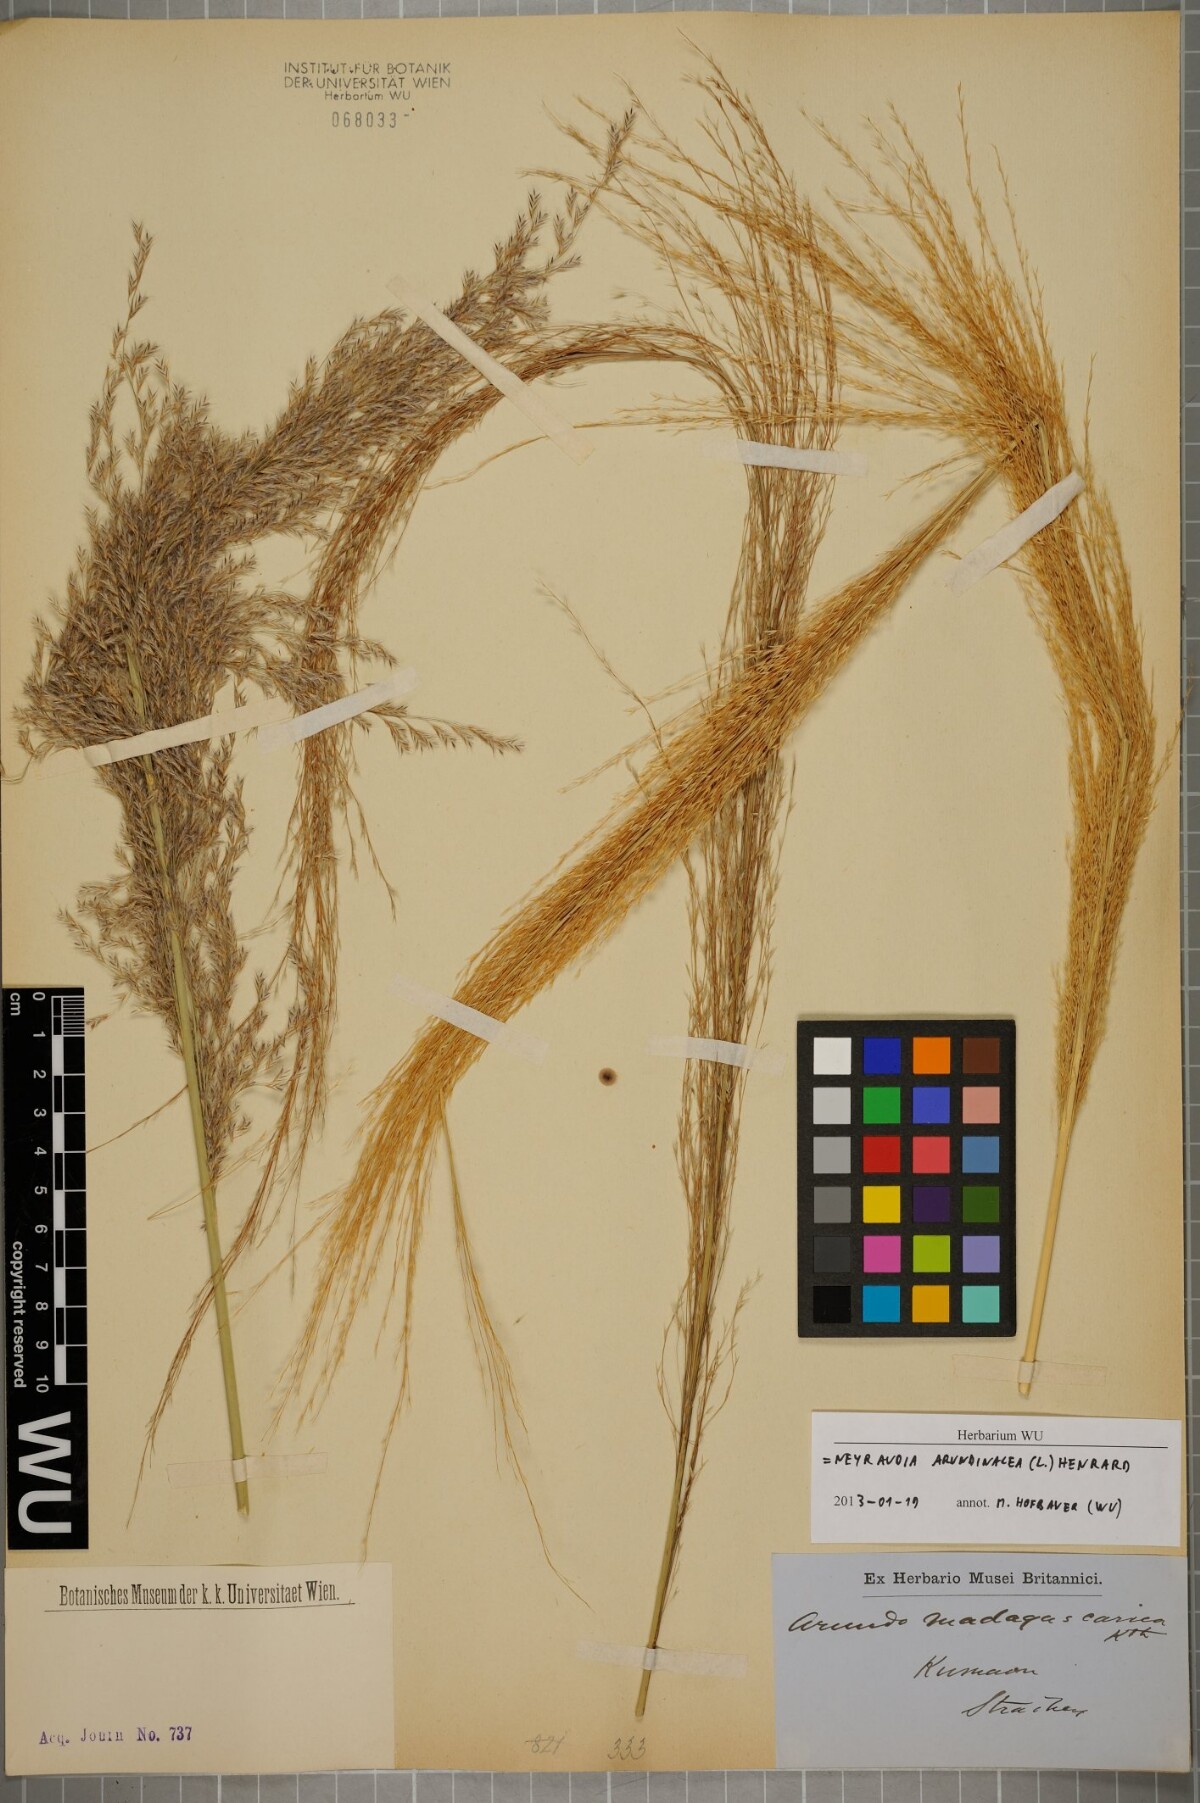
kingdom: Plantae
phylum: Tracheophyta
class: Liliopsida
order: Poales
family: Poaceae
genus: Neyraudia
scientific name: Neyraudia arundinacea
